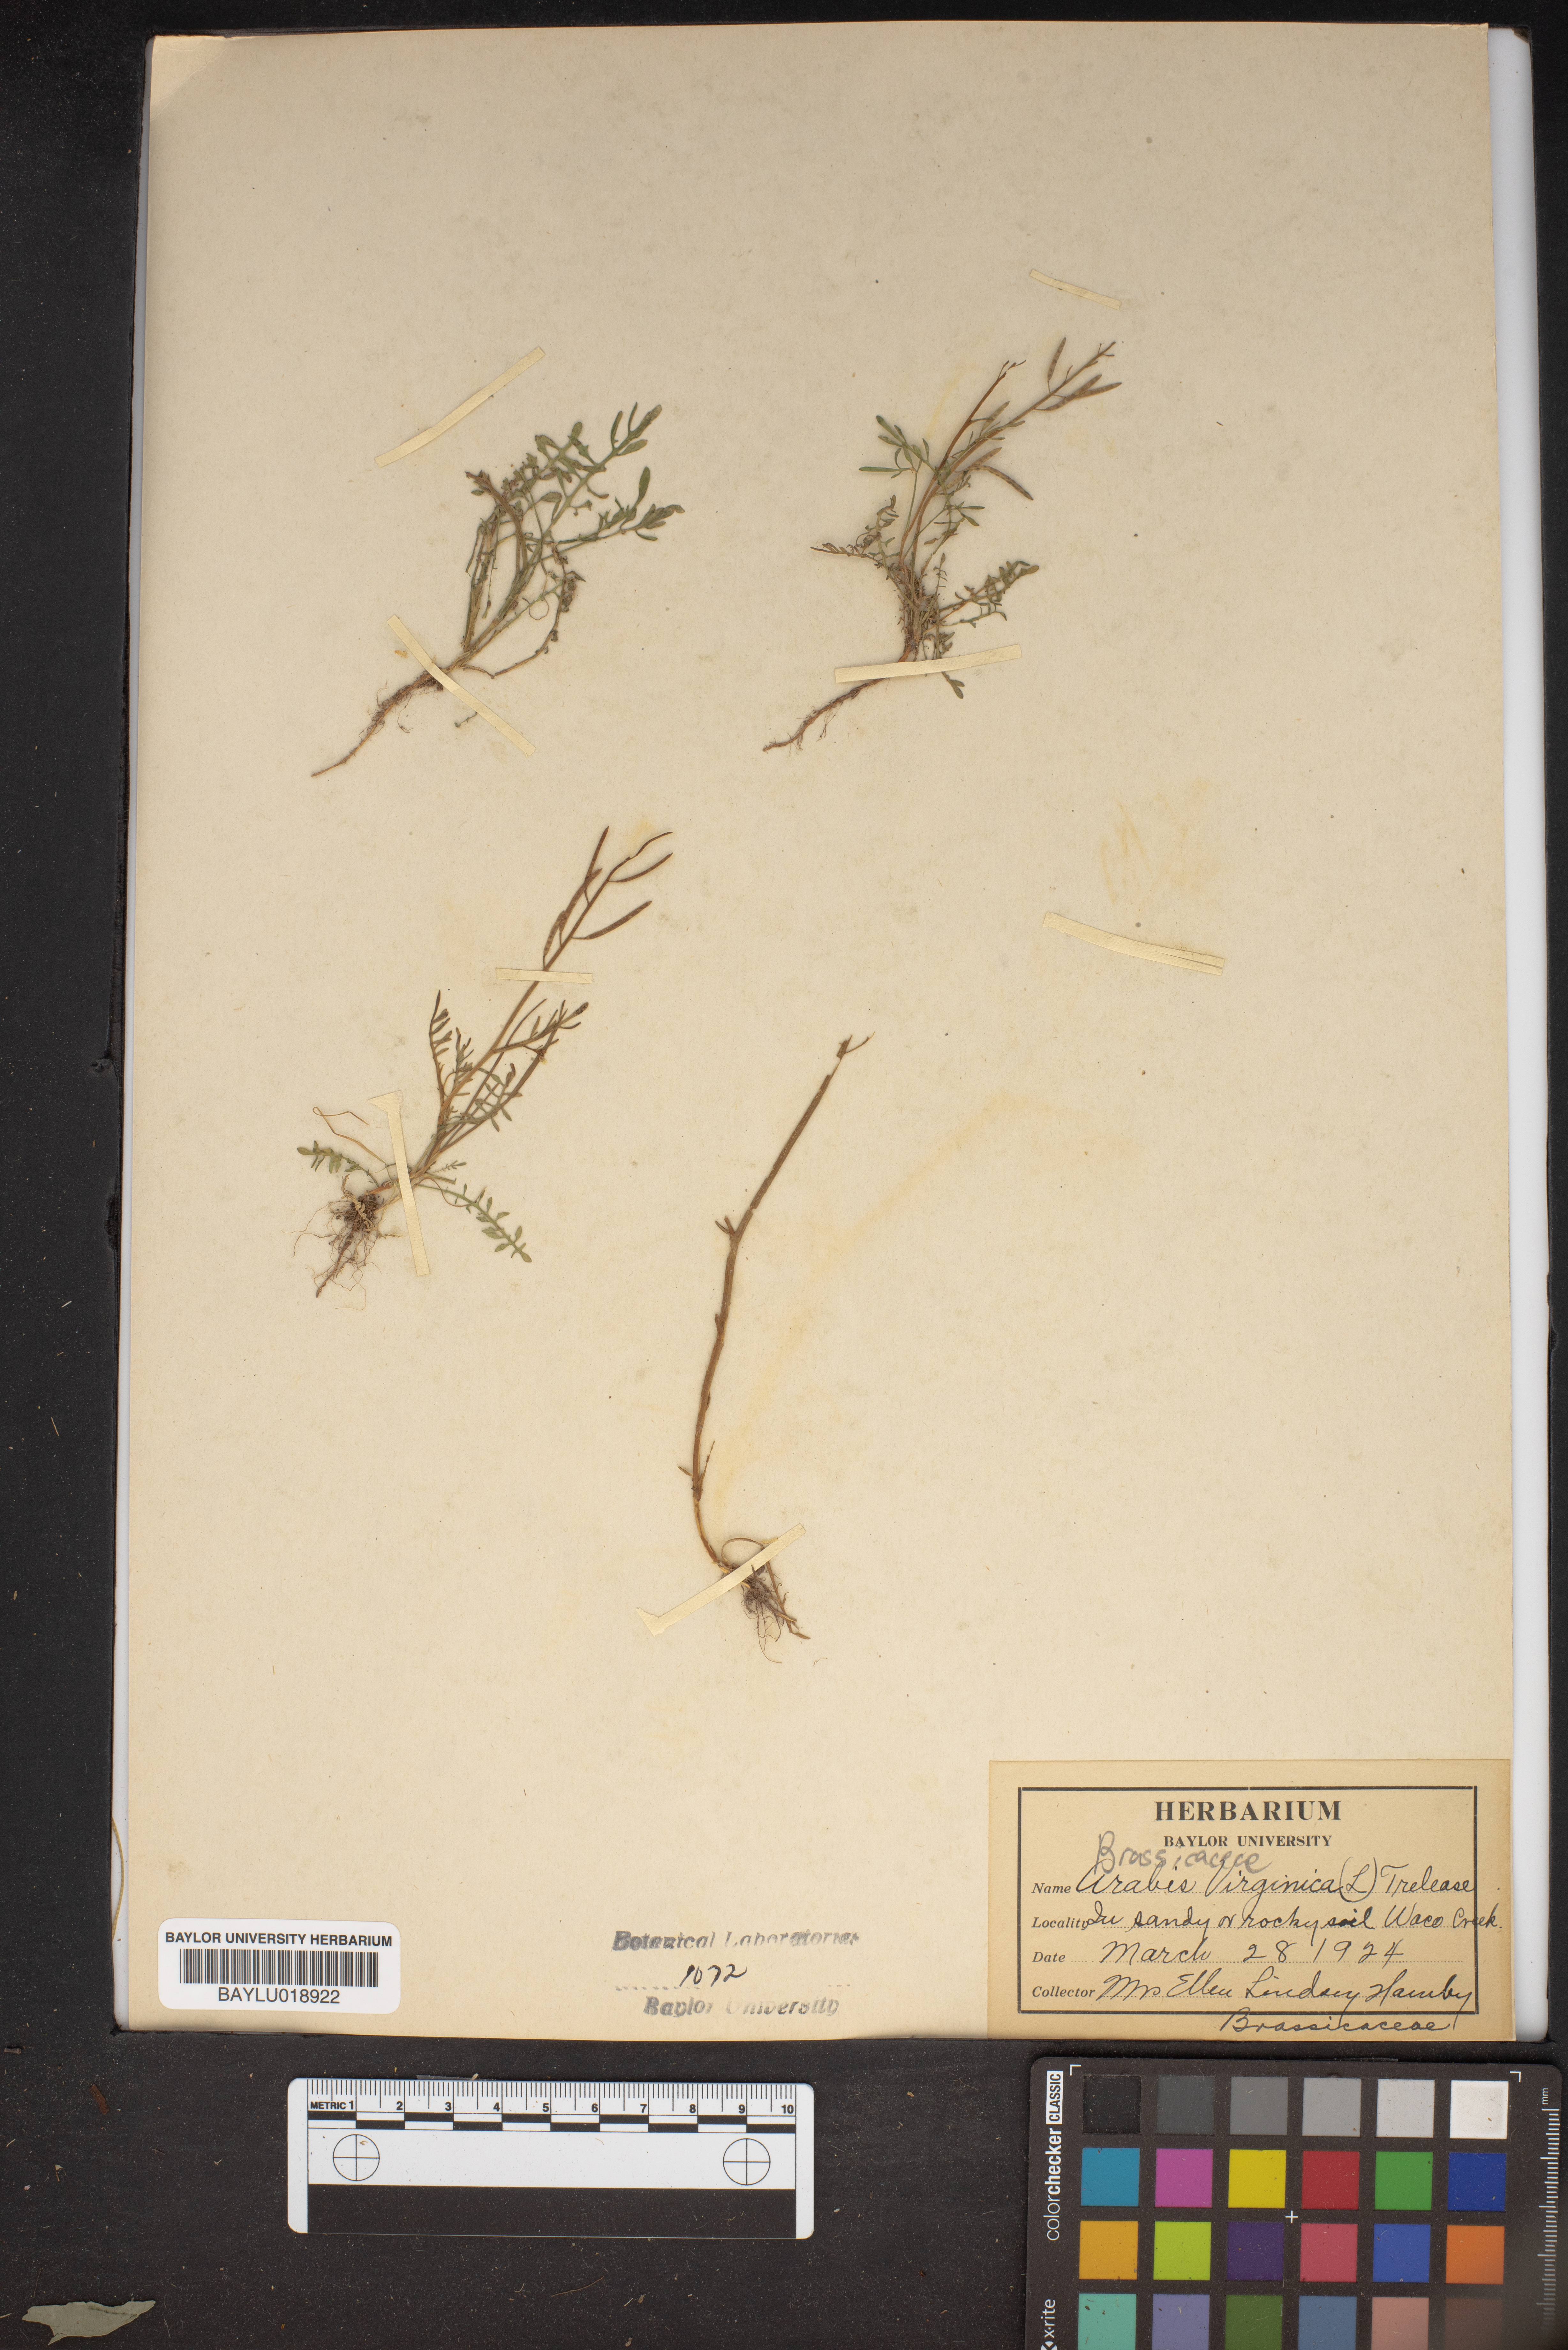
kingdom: Plantae
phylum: Tracheophyta
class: Magnoliopsida
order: Brassicales
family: Brassicaceae
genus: Planodes
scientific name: Planodes virginicum
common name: Virginia cress
